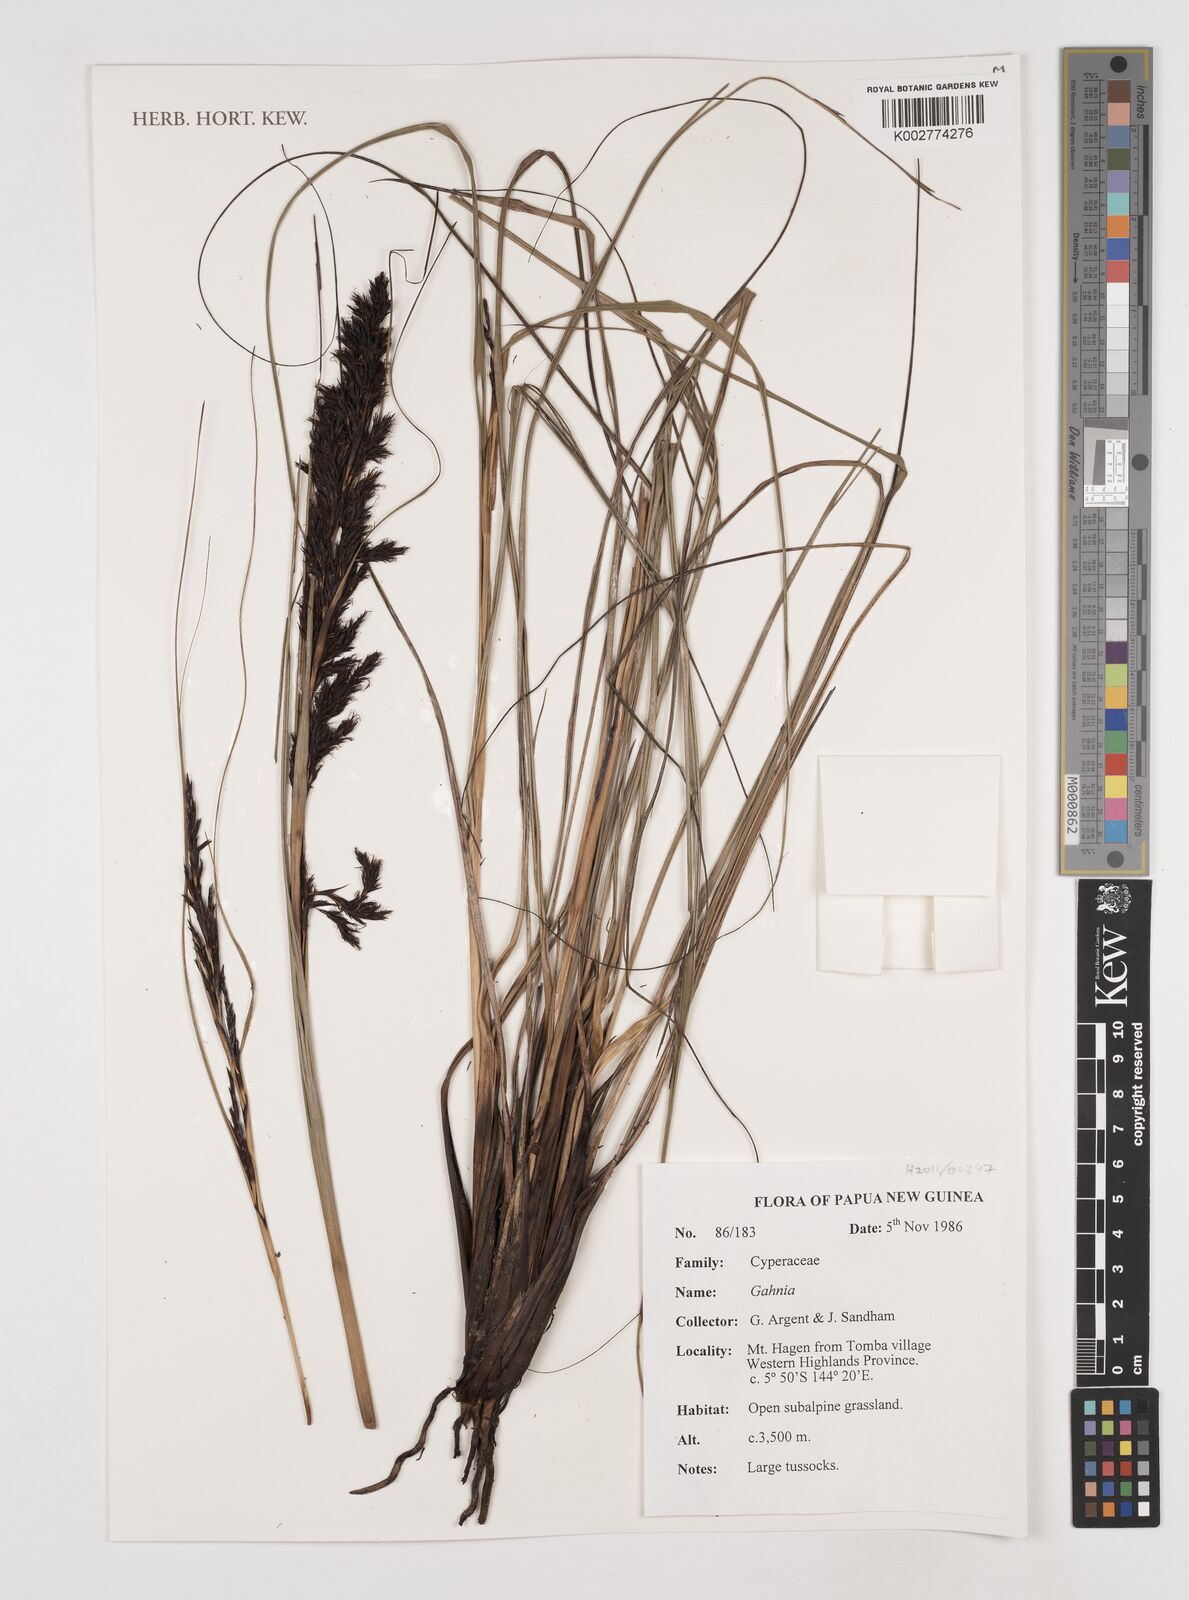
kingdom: Plantae
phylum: Tracheophyta
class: Liliopsida
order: Poales
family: Cyperaceae
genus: Gahnia
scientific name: Gahnia
